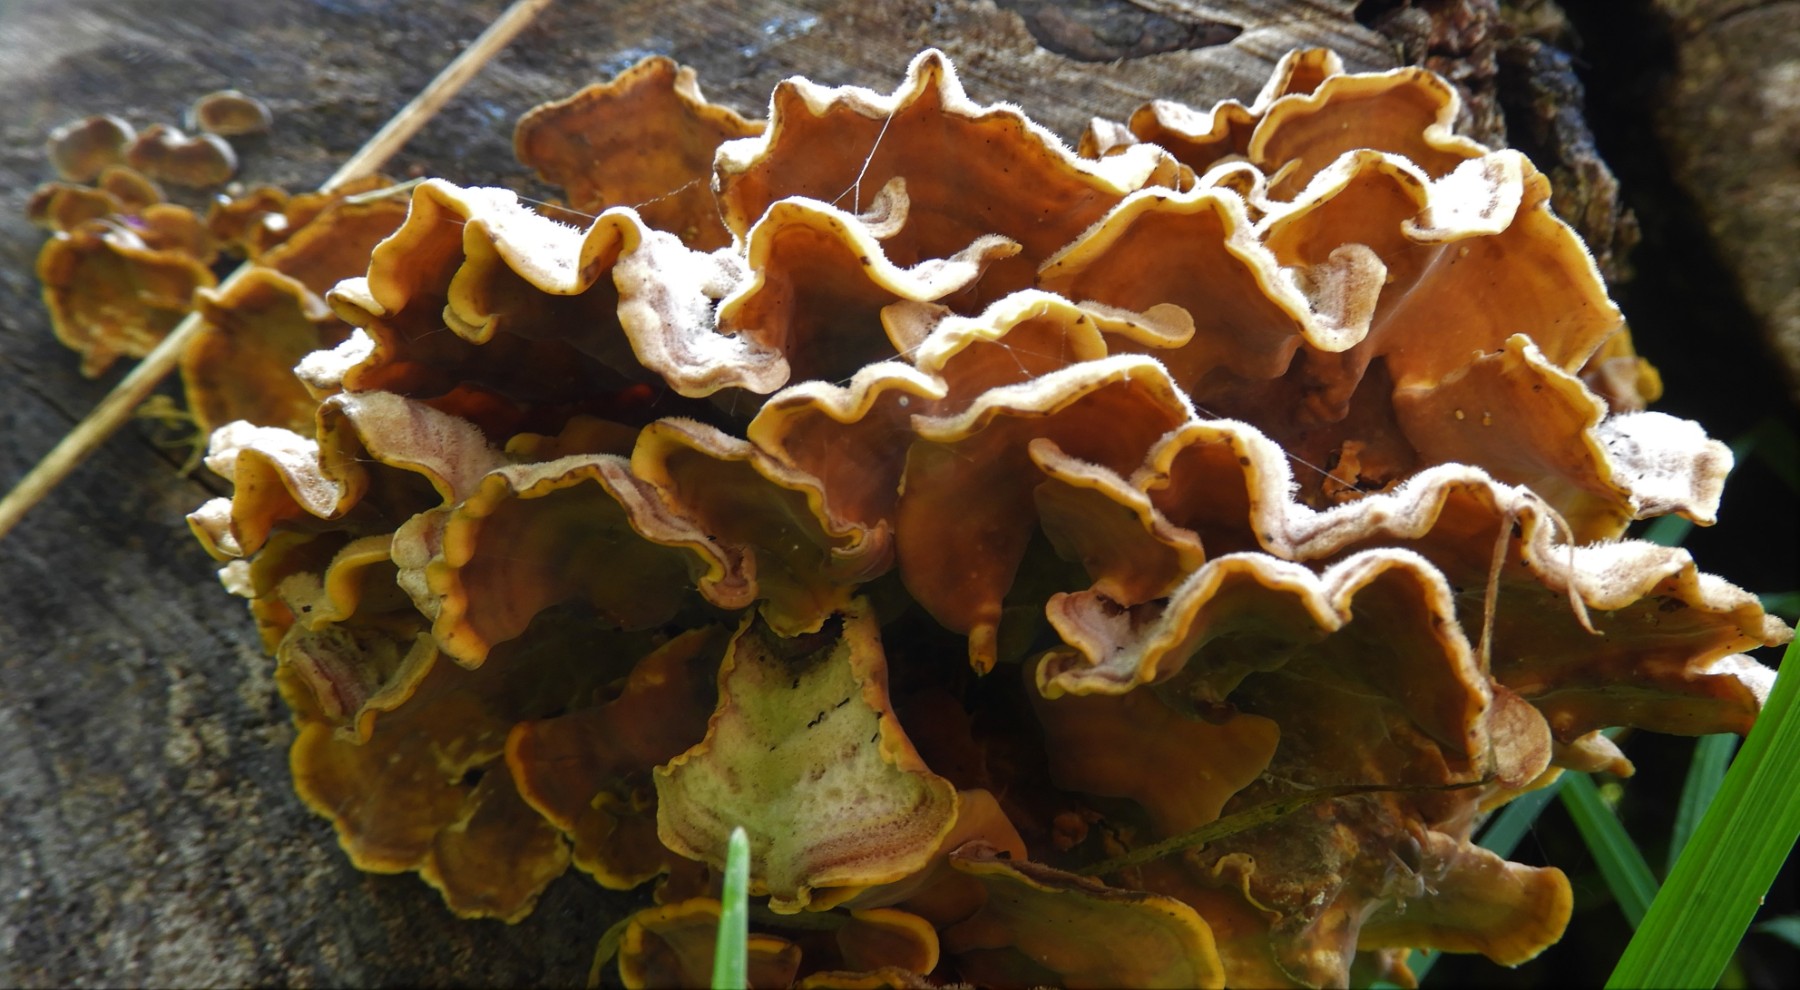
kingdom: Fungi
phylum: Basidiomycota
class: Agaricomycetes
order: Russulales
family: Stereaceae
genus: Stereum
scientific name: Stereum hirsutum
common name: håret lædersvamp
